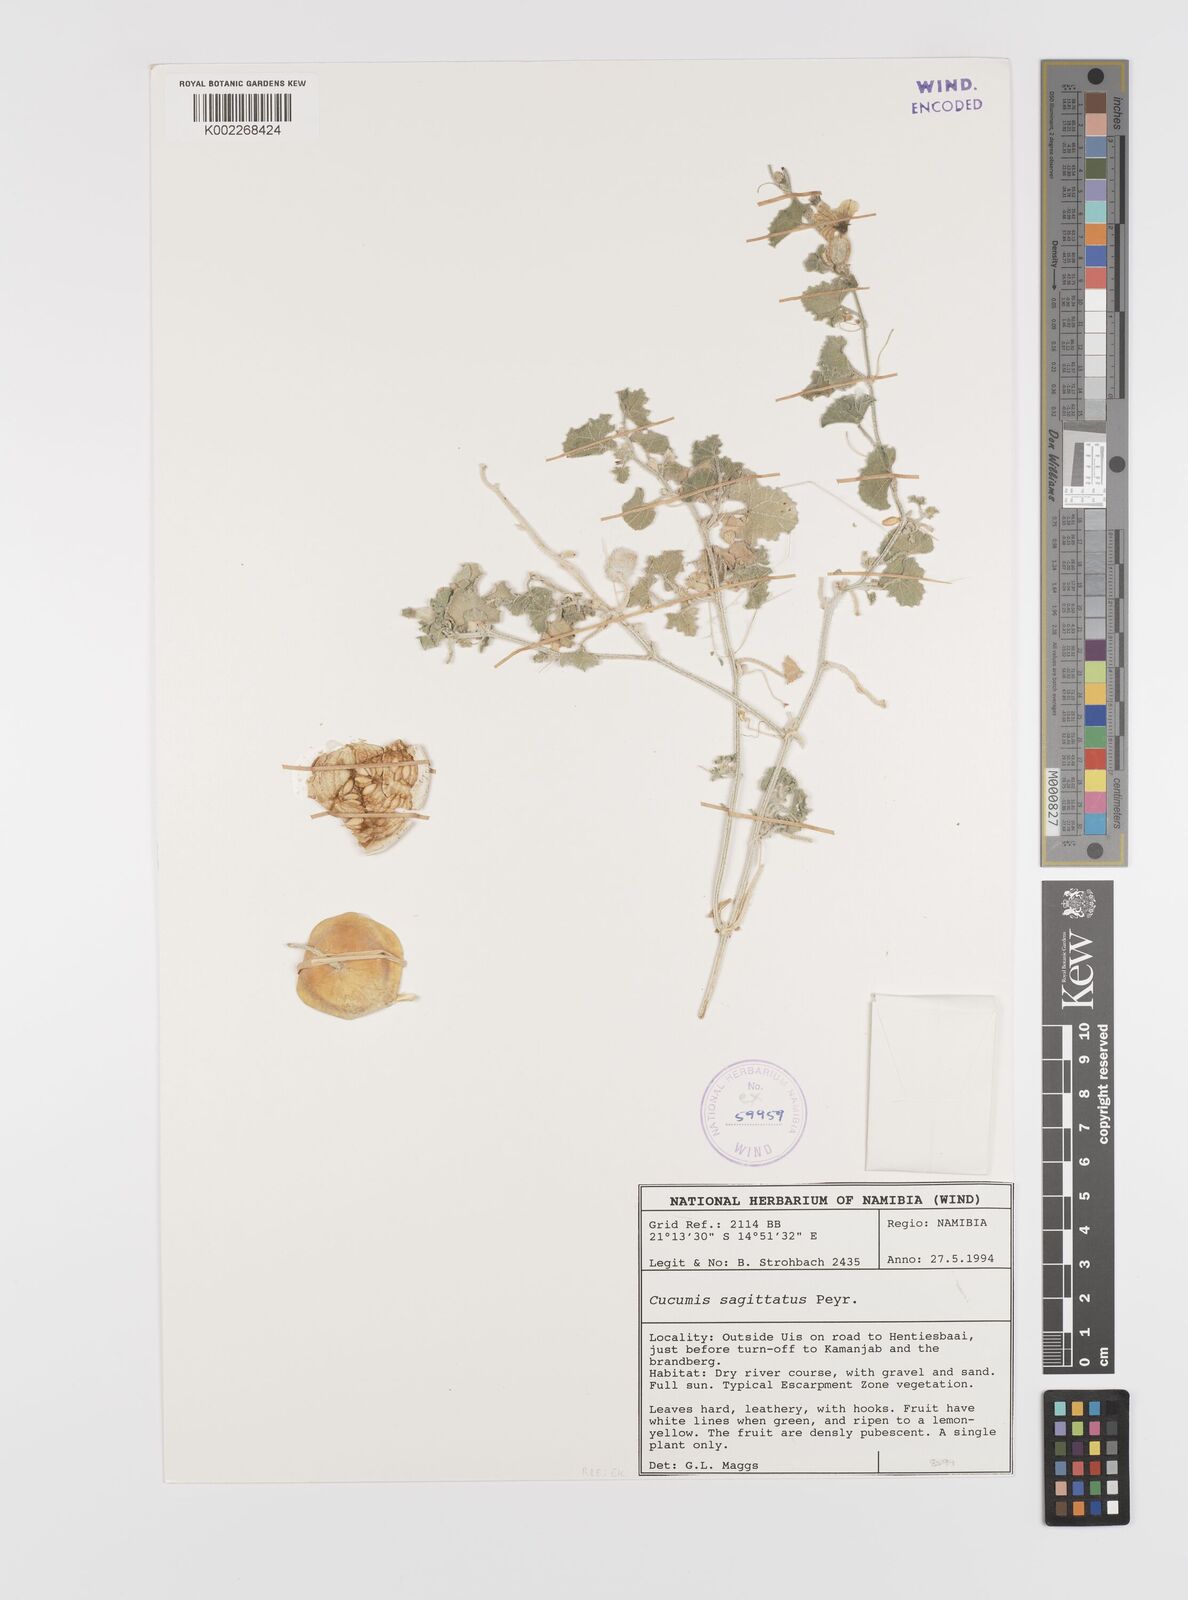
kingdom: Plantae
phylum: Tracheophyta
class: Magnoliopsida
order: Cucurbitales
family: Cucurbitaceae
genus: Cucumis
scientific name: Cucumis sagittatus
